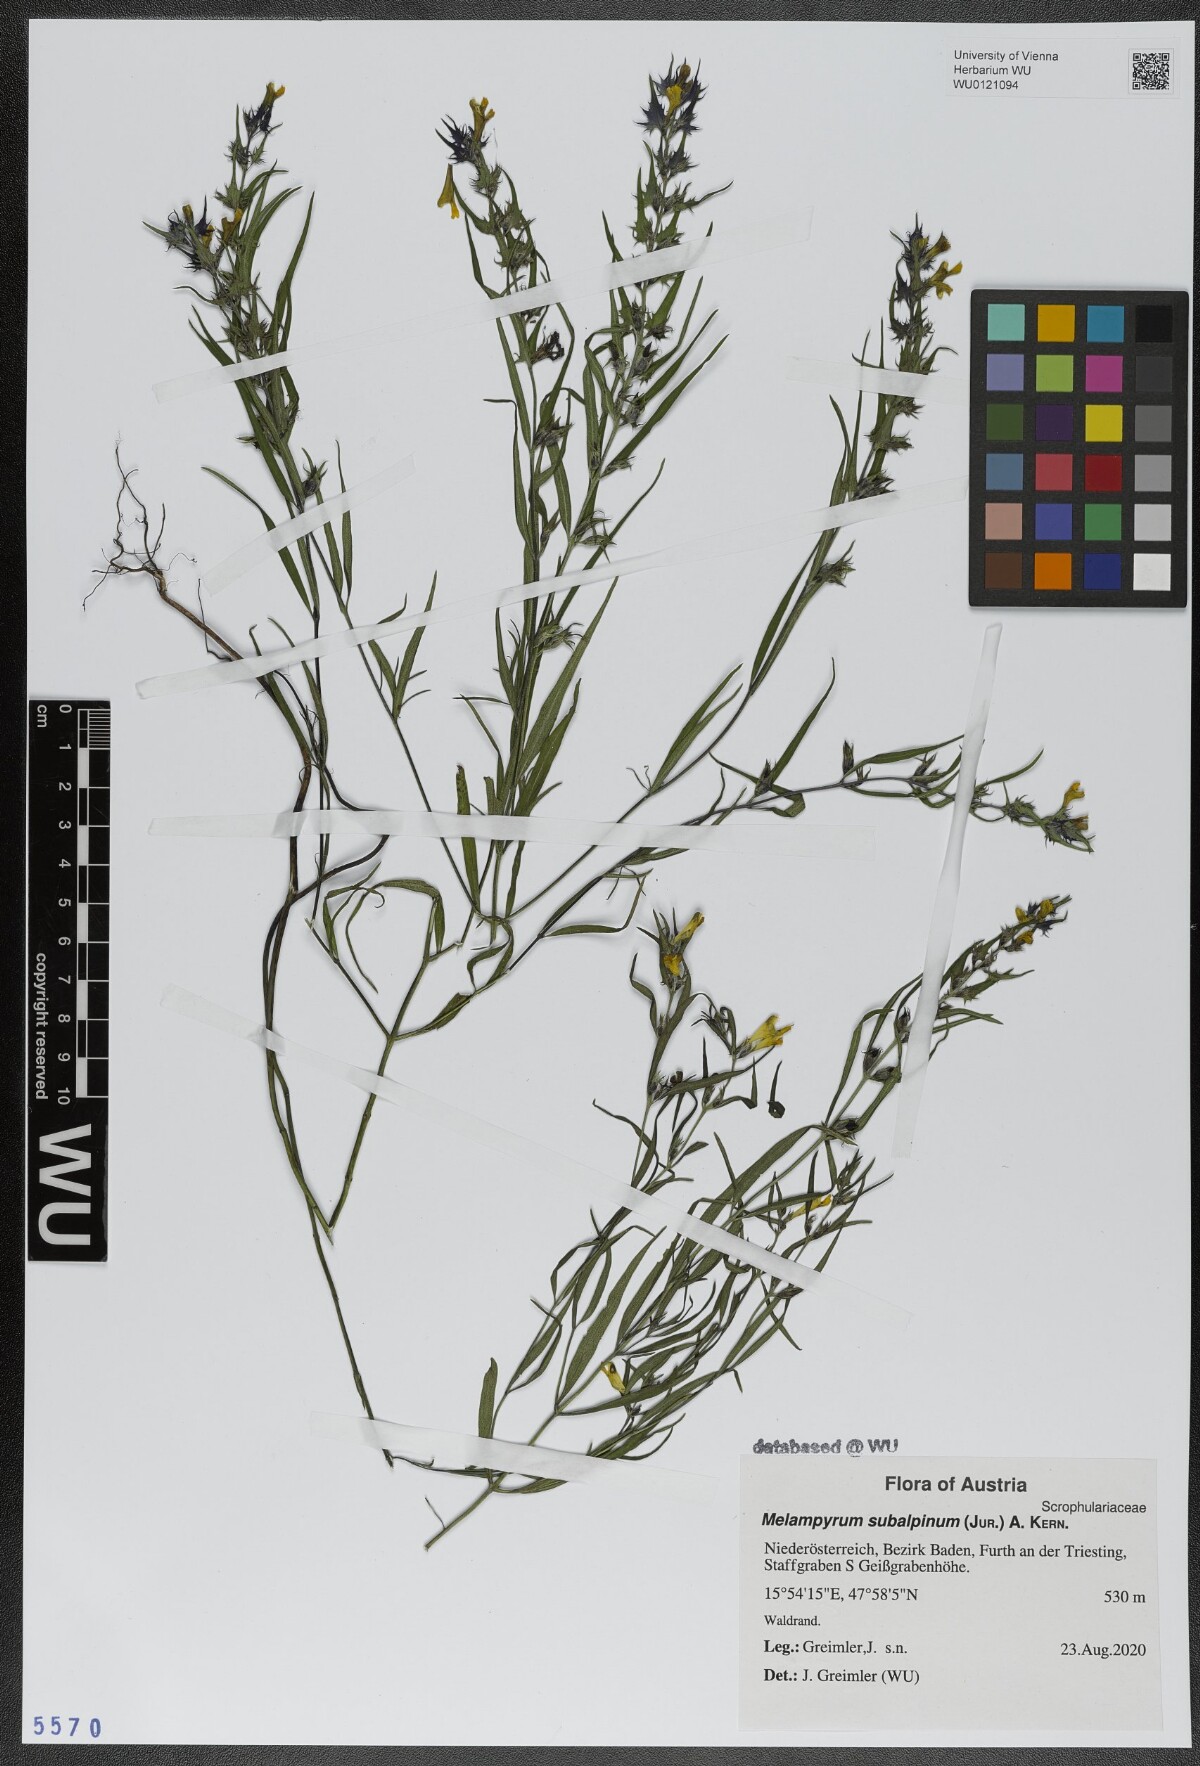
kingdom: Plantae
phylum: Tracheophyta
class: Magnoliopsida
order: Lamiales
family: Orobanchaceae
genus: Melampyrum
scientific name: Melampyrum subalpinum
